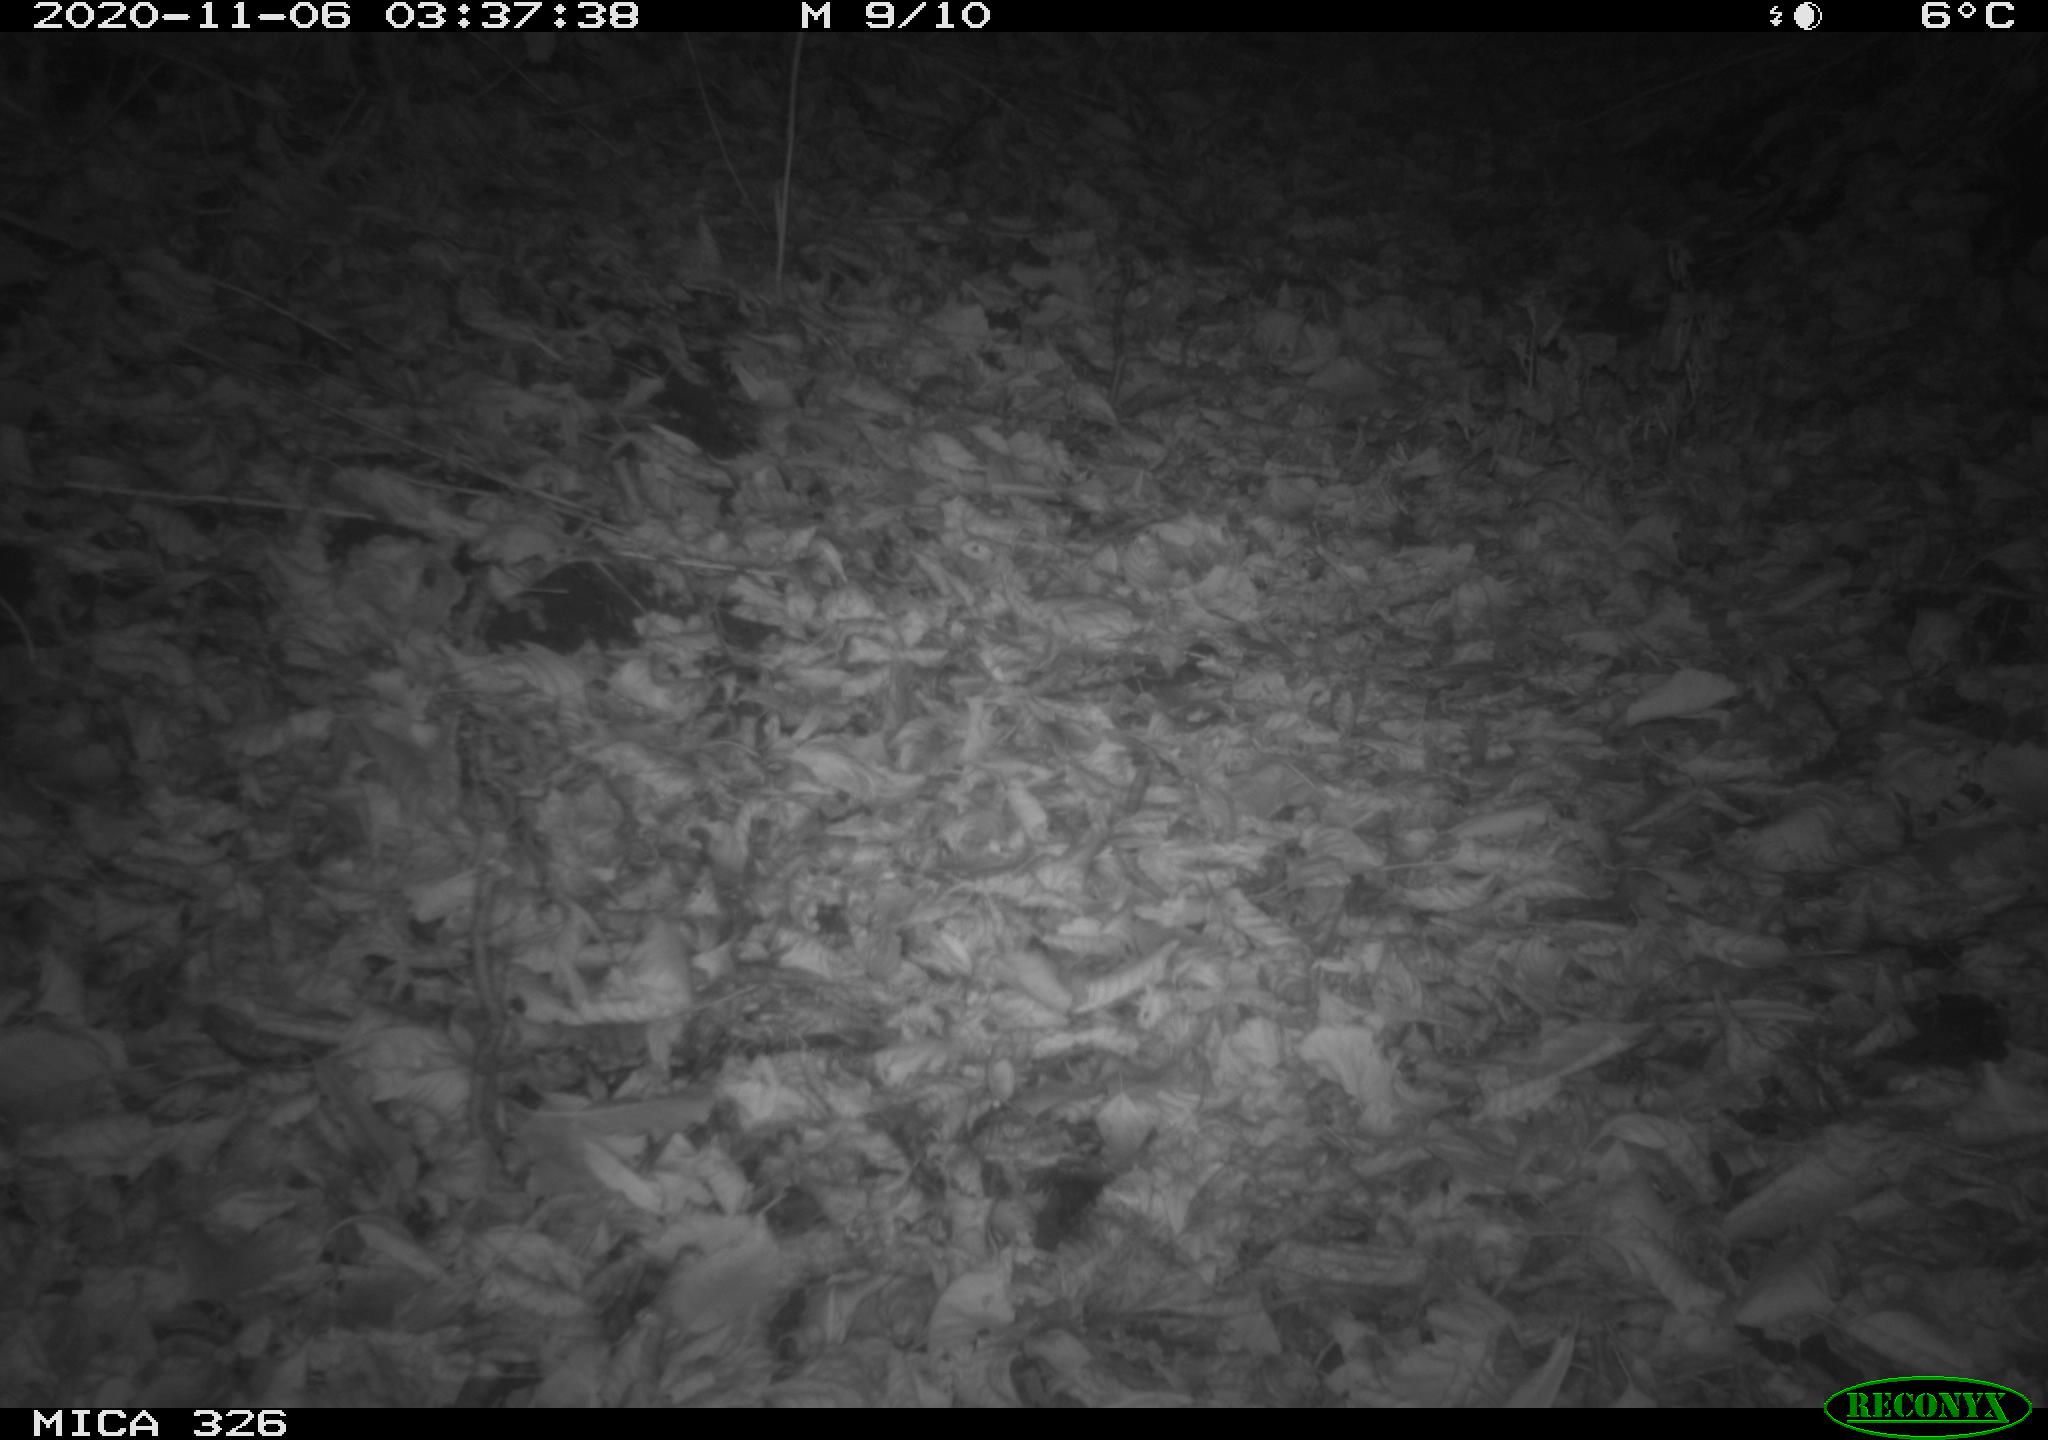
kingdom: Animalia
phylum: Chordata
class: Mammalia
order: Rodentia
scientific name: Rodentia
